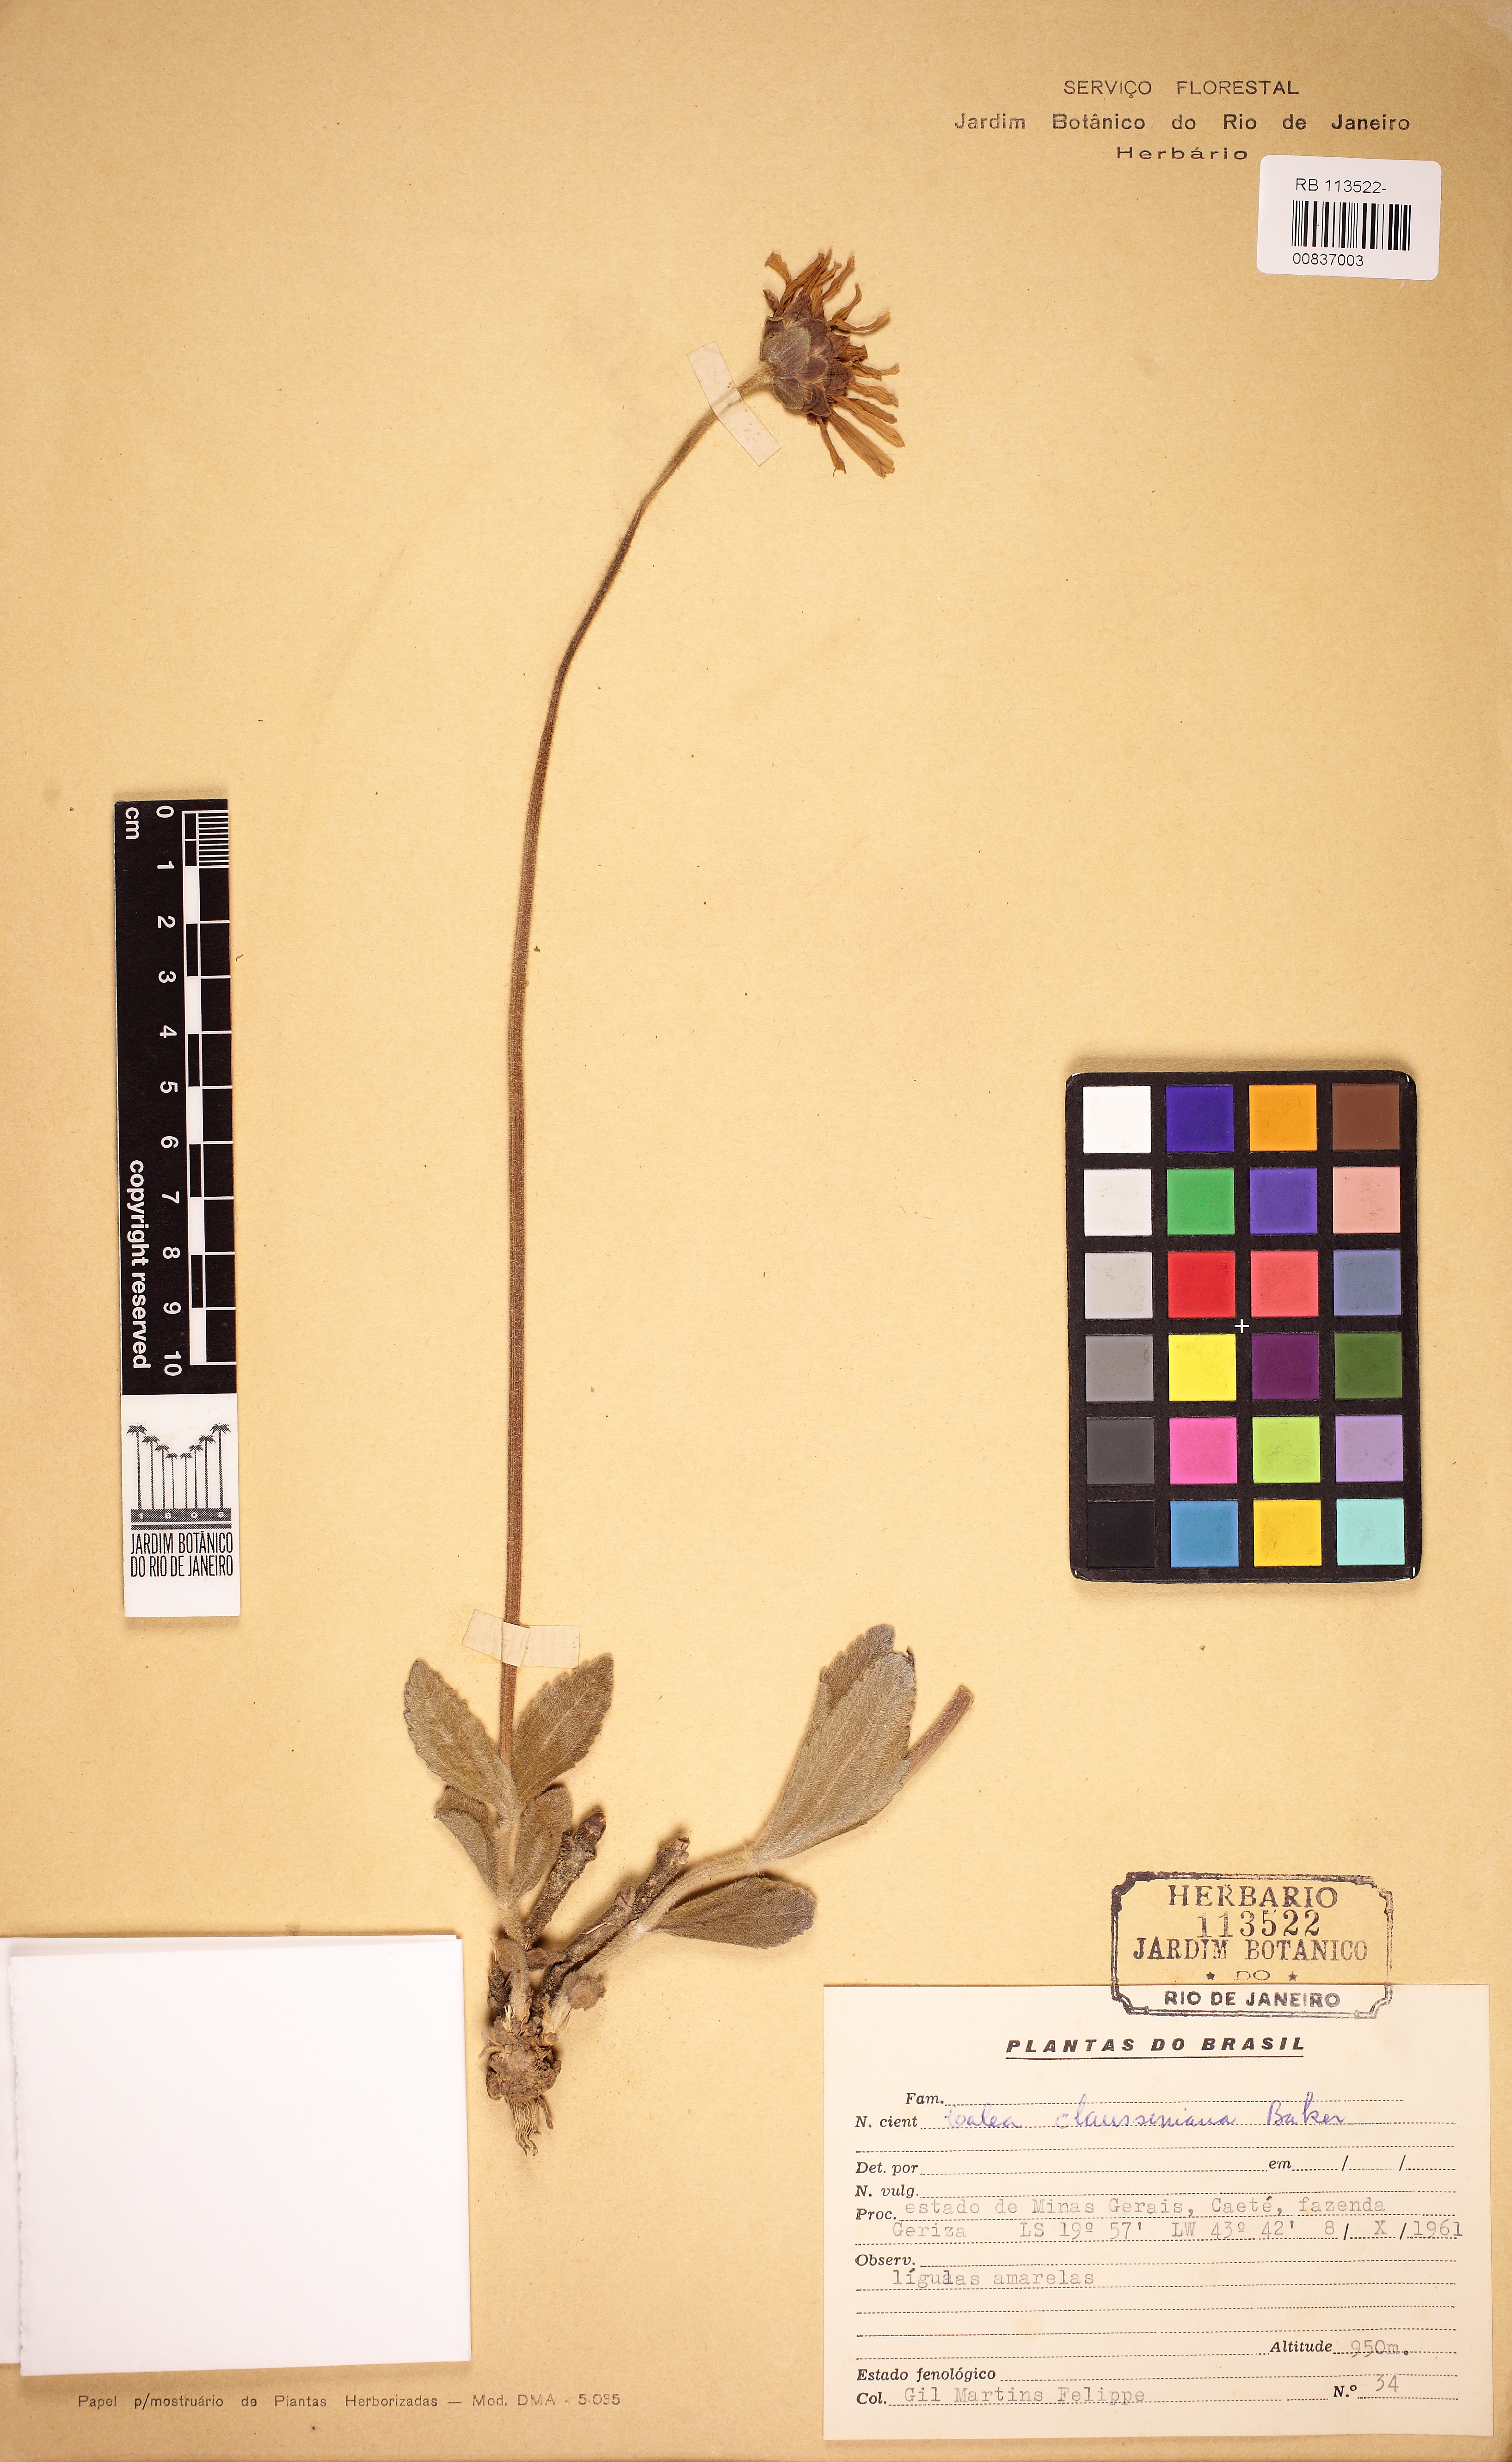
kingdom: Plantae
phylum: Tracheophyta
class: Magnoliopsida
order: Asterales
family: Asteraceae
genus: Calea
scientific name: Calea clausseniana
